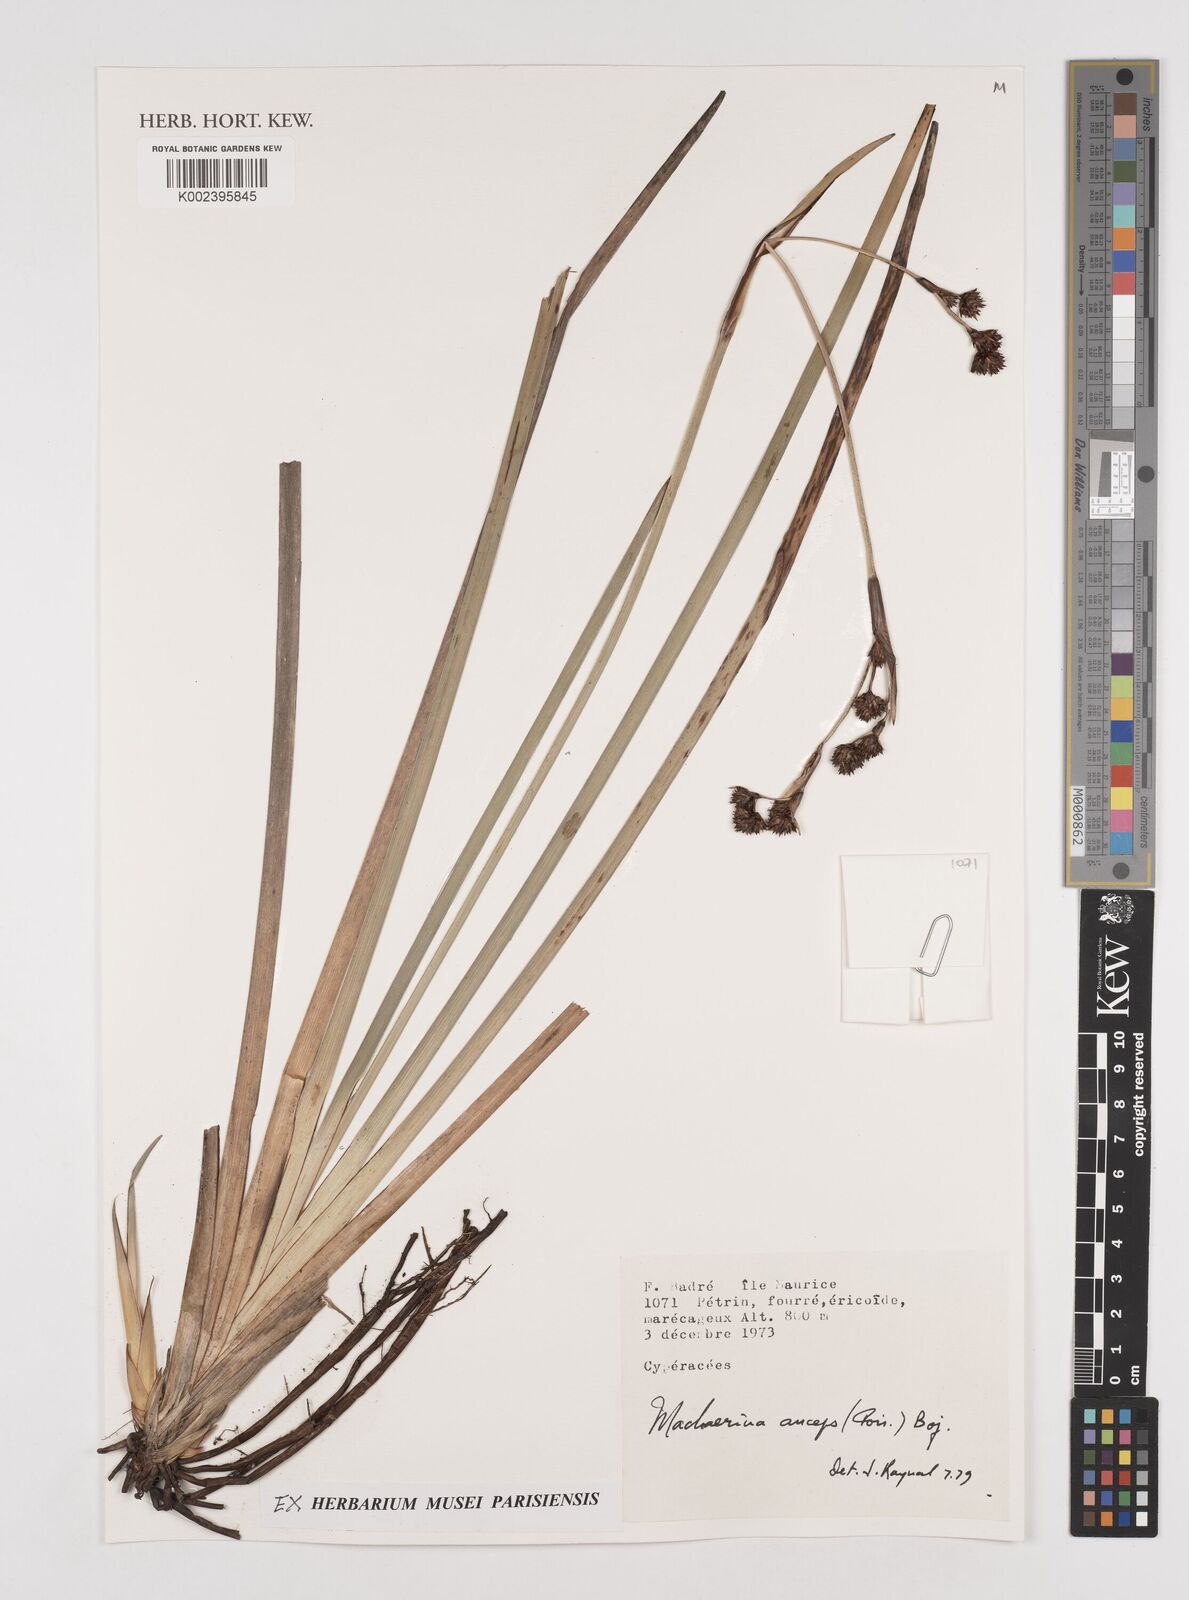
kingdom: Plantae
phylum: Tracheophyta
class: Liliopsida
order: Poales
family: Cyperaceae
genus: Machaerina
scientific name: Machaerina anceps
